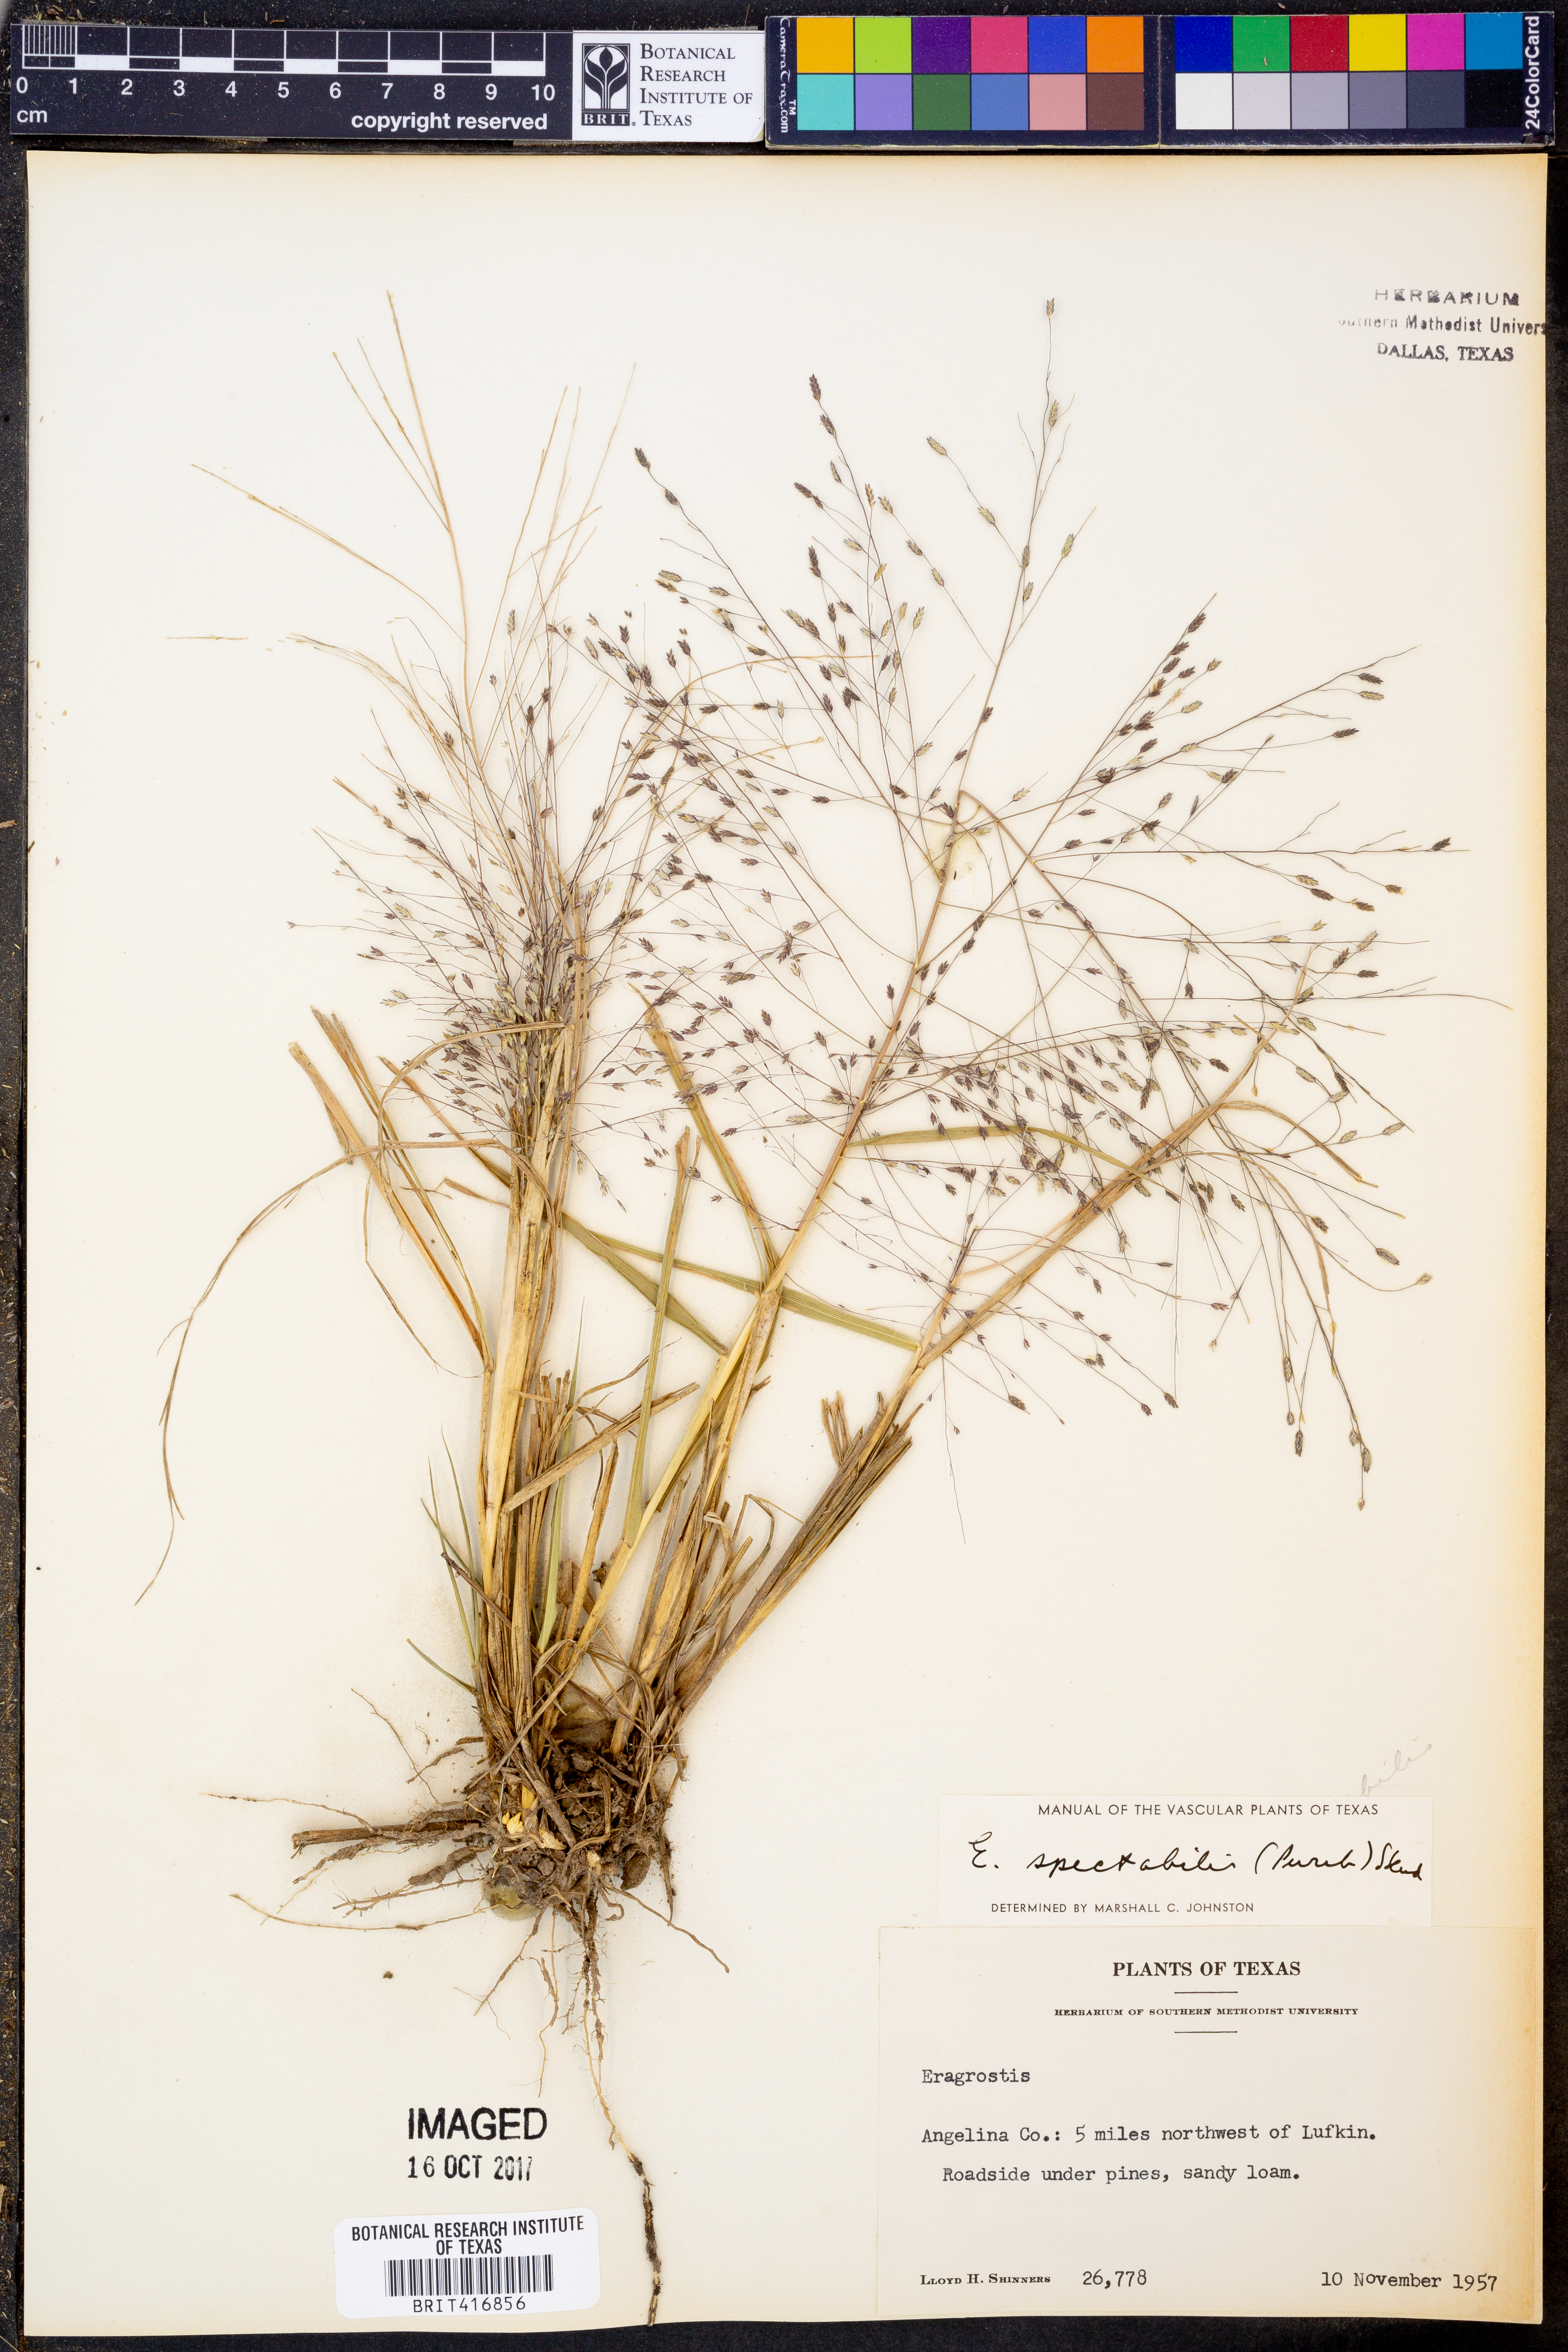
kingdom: Plantae
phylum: Tracheophyta
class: Liliopsida
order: Poales
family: Poaceae
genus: Eragrostis
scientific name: Eragrostis spectabilis
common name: Petticoat-climber
